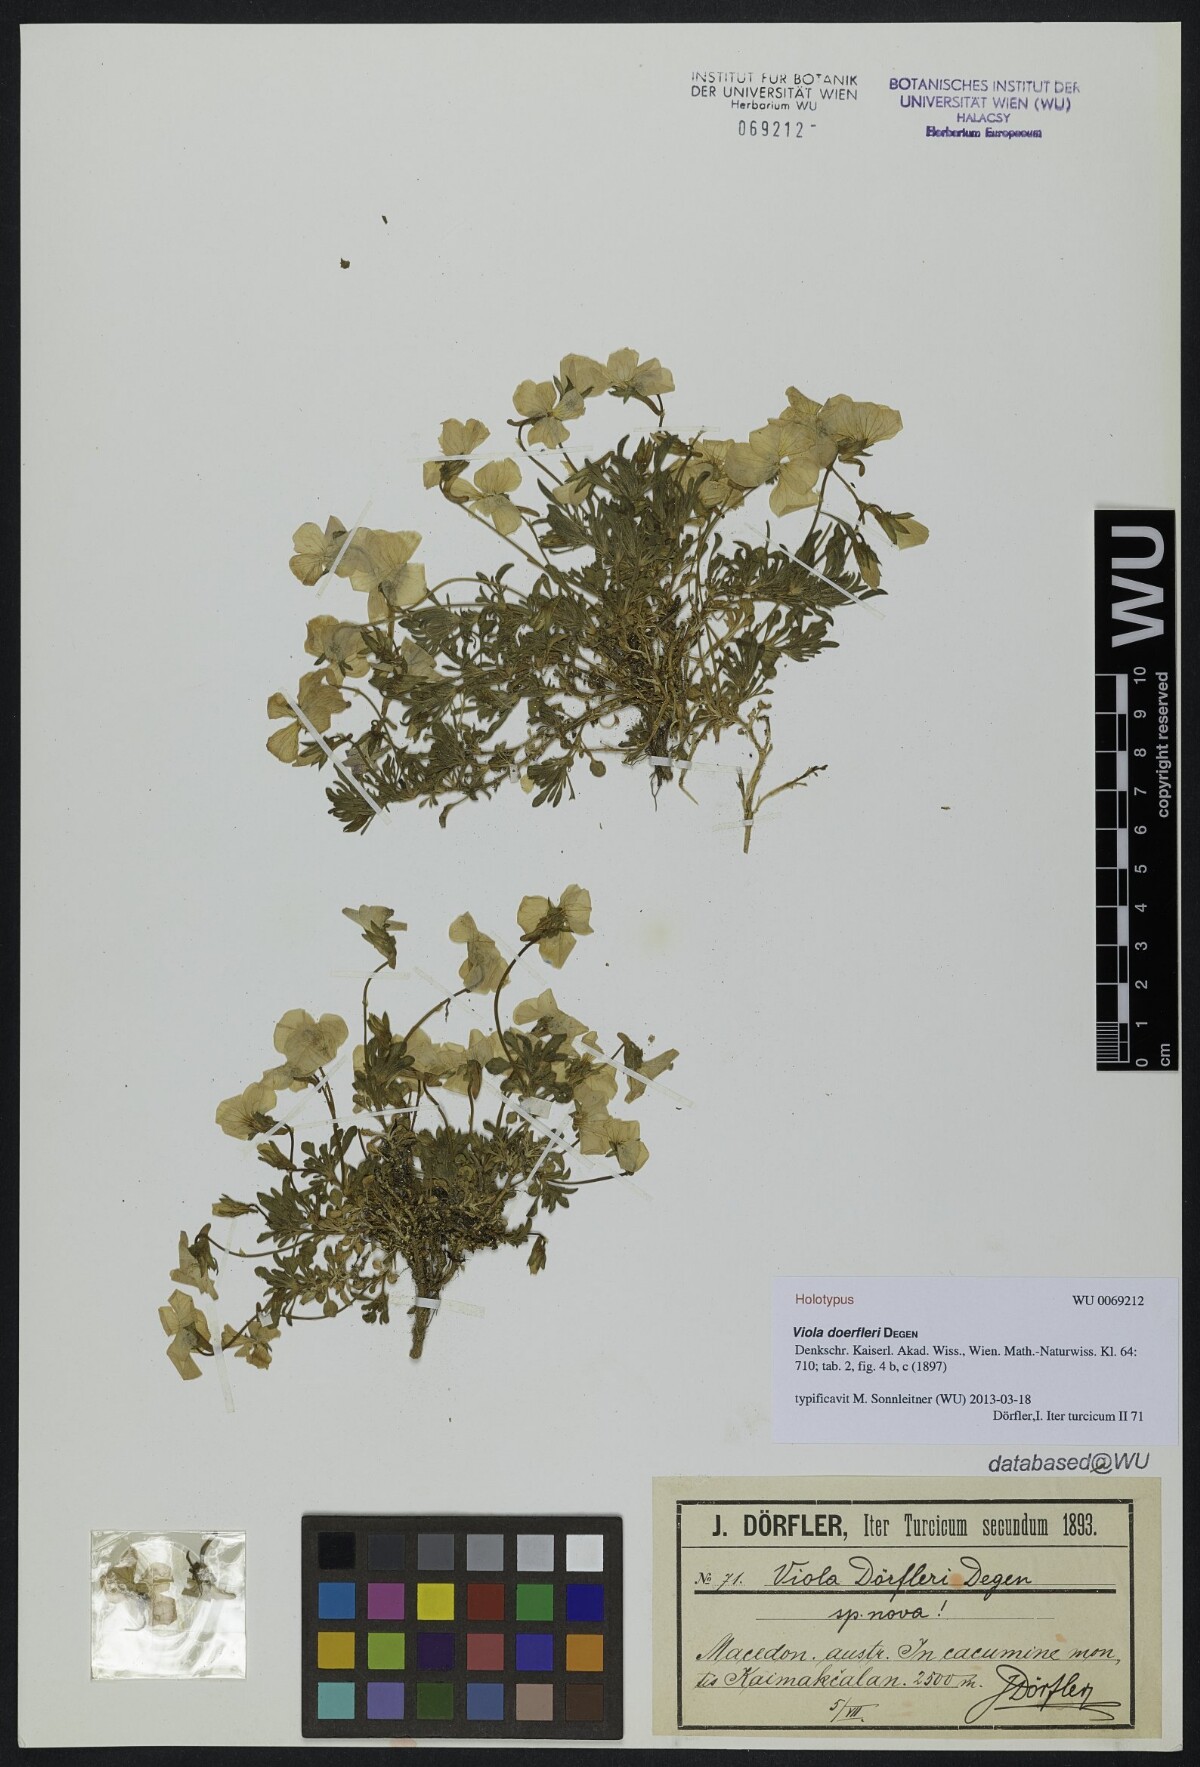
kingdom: Plantae
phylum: Tracheophyta
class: Magnoliopsida
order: Malpighiales
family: Violaceae
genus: Viola
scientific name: Viola doerfleri
